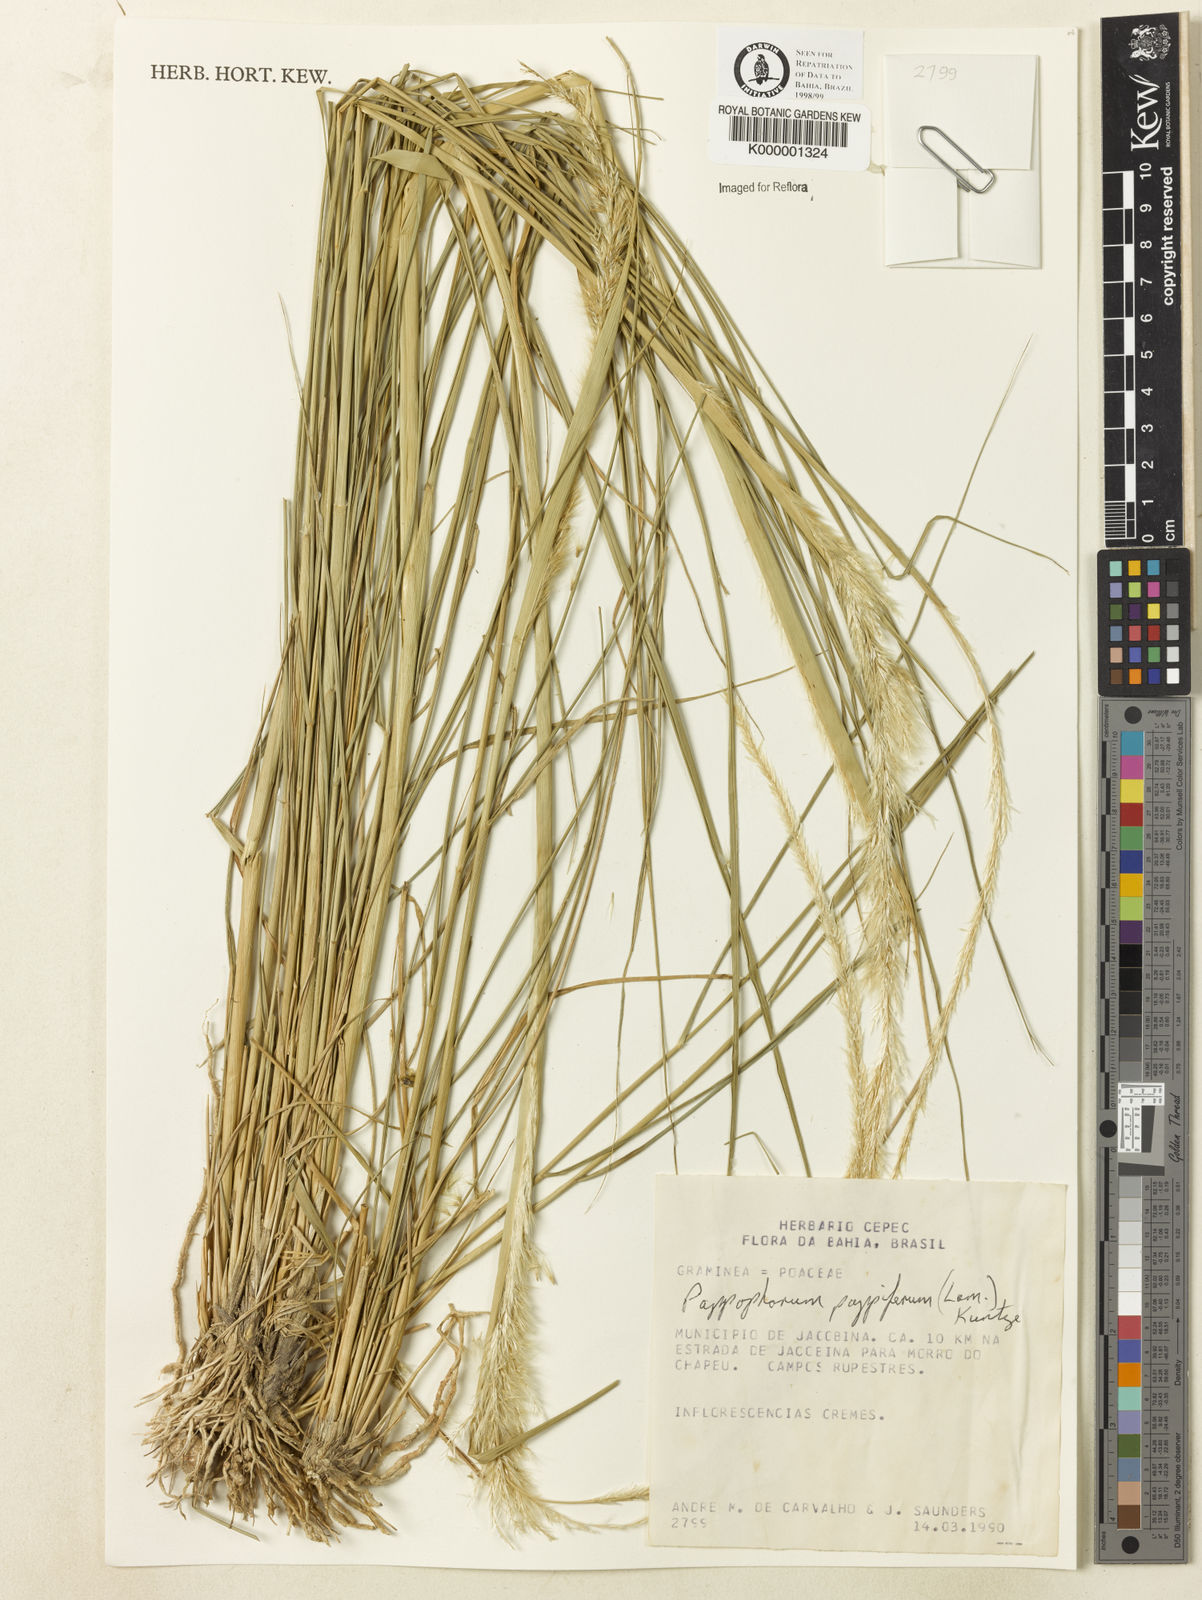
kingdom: Plantae
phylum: Tracheophyta
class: Liliopsida
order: Poales
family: Poaceae
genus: Pappophorum
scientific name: Pappophorum pappiferum
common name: Crabgrass
